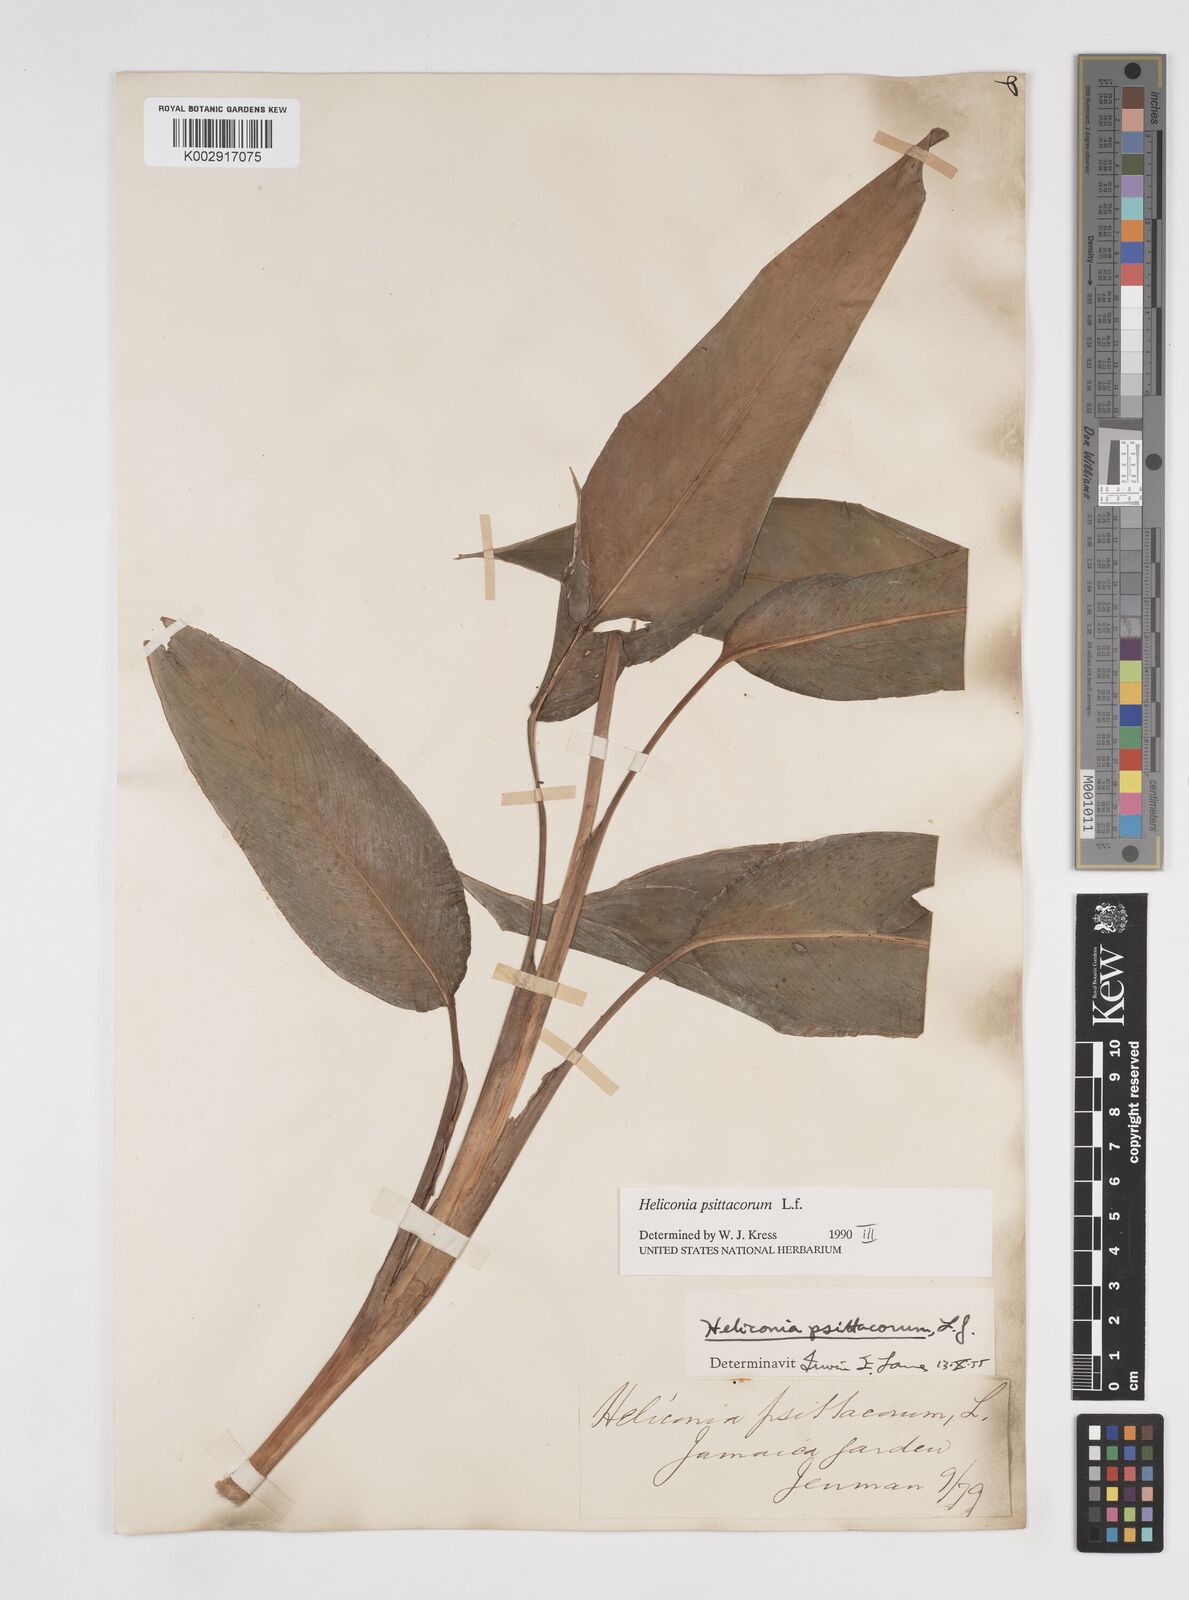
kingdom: Plantae
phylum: Tracheophyta
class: Liliopsida
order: Zingiberales
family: Heliconiaceae
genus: Heliconia
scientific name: Heliconia psittacorum
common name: Parrot's-flower
